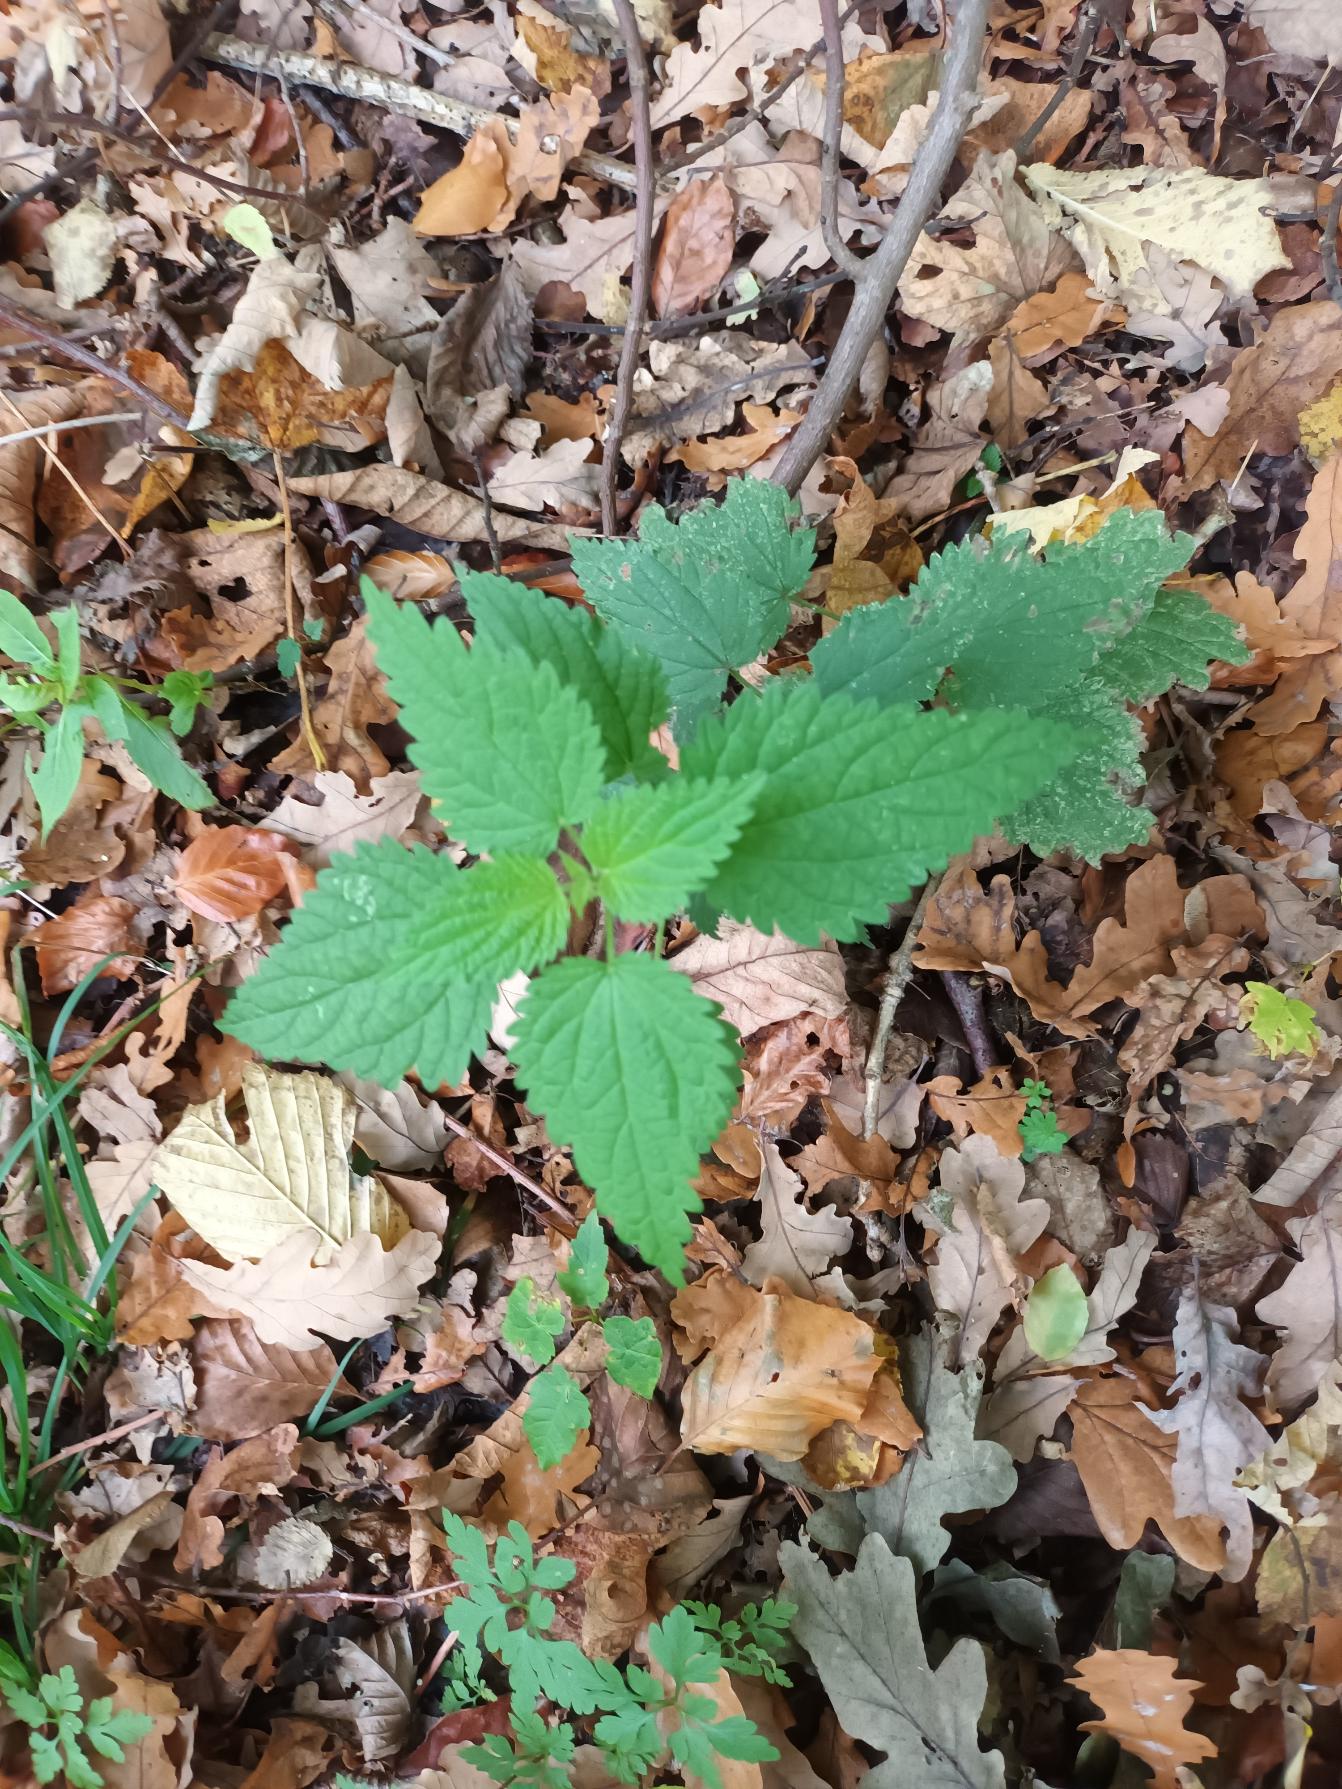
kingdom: Plantae
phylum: Tracheophyta
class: Magnoliopsida
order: Rosales
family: Urticaceae
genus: Urtica
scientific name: Urtica dioica
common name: Stor nælde
